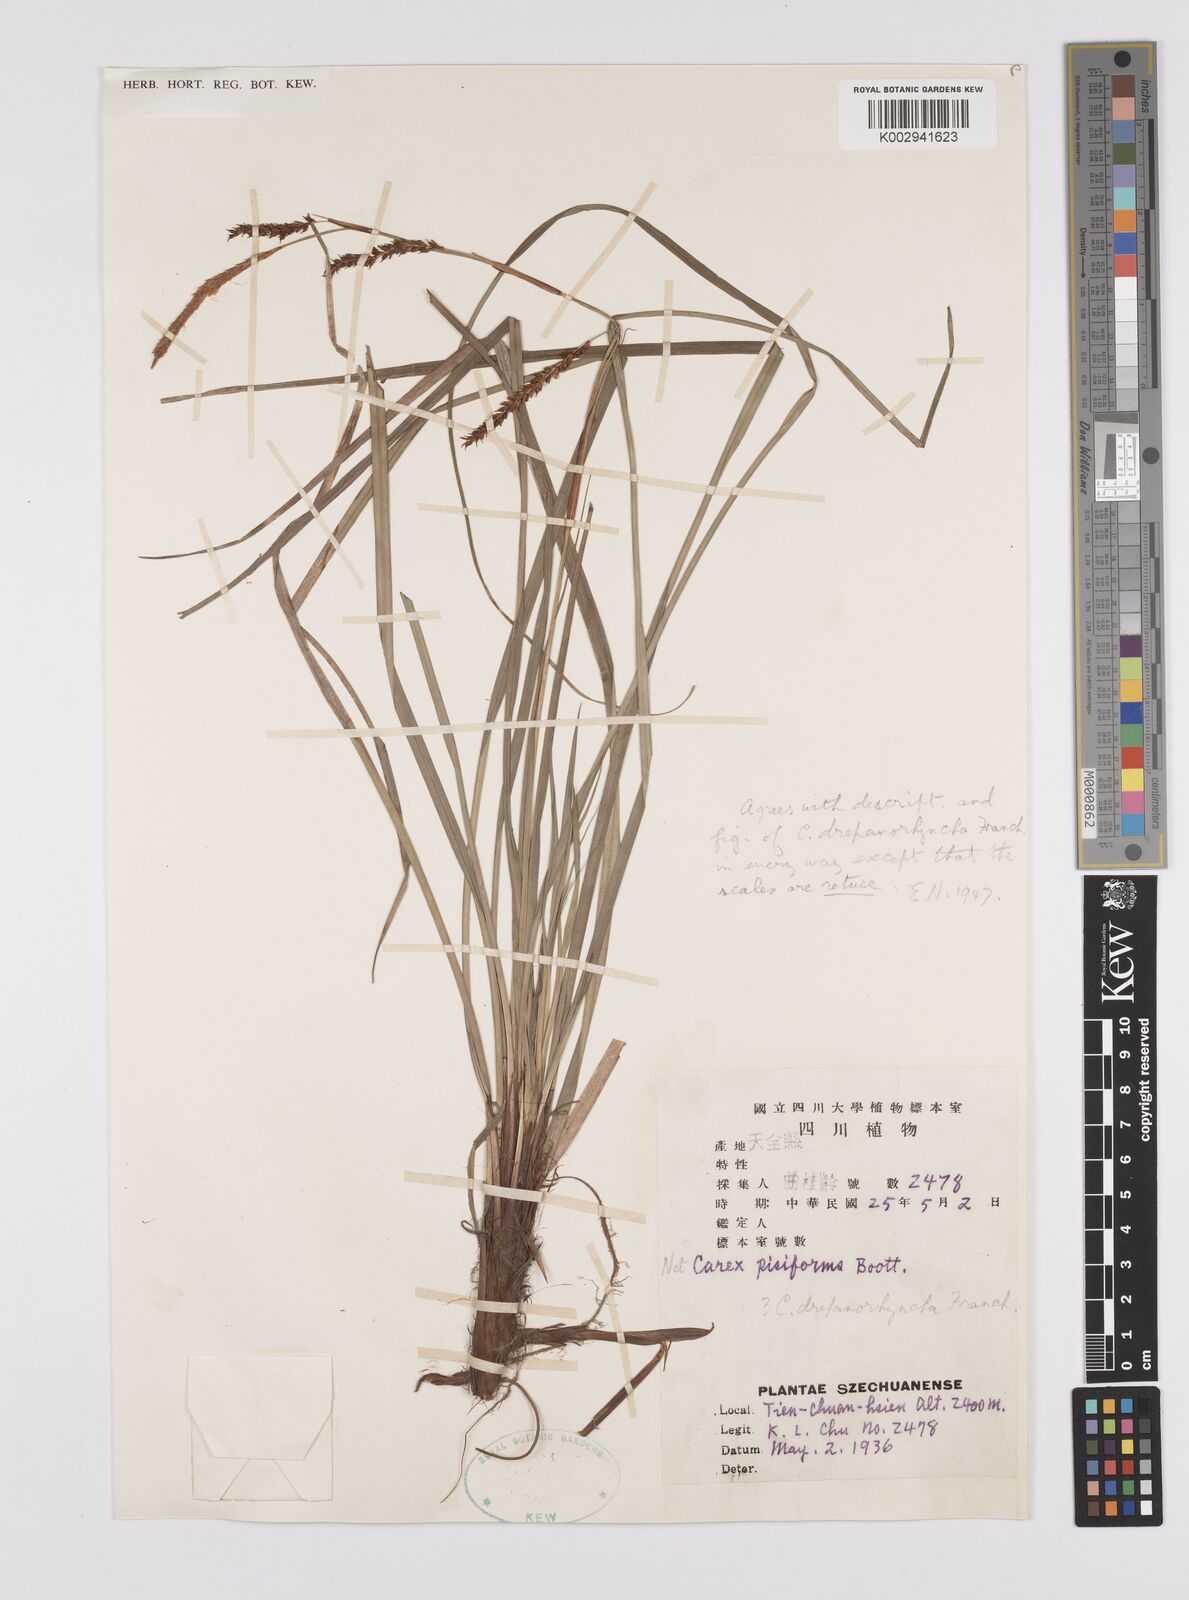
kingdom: Plantae
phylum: Tracheophyta
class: Liliopsida
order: Poales
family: Cyperaceae
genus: Carex
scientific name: Carex drepanorhyncha
